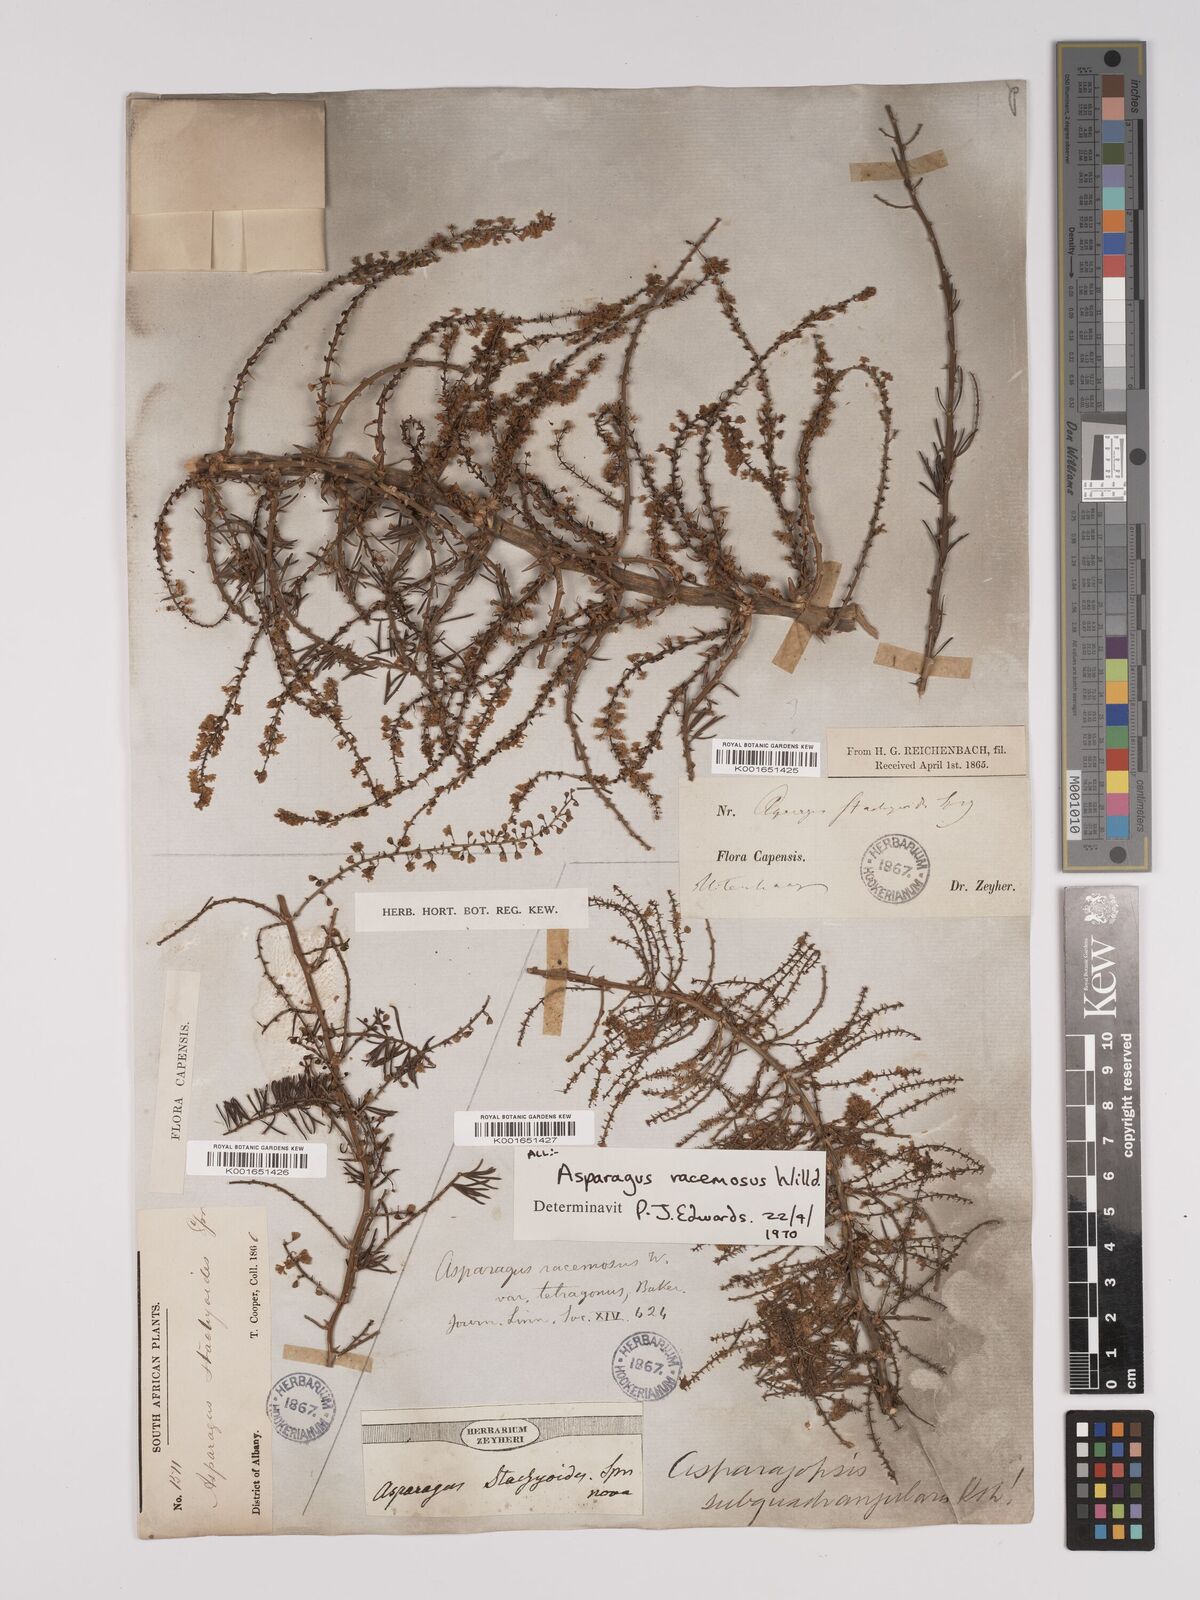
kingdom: Plantae
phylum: Tracheophyta
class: Liliopsida
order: Asparagales
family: Asparagaceae
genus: Asparagus
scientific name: Asparagus racemosus
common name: Asparagus-fern
